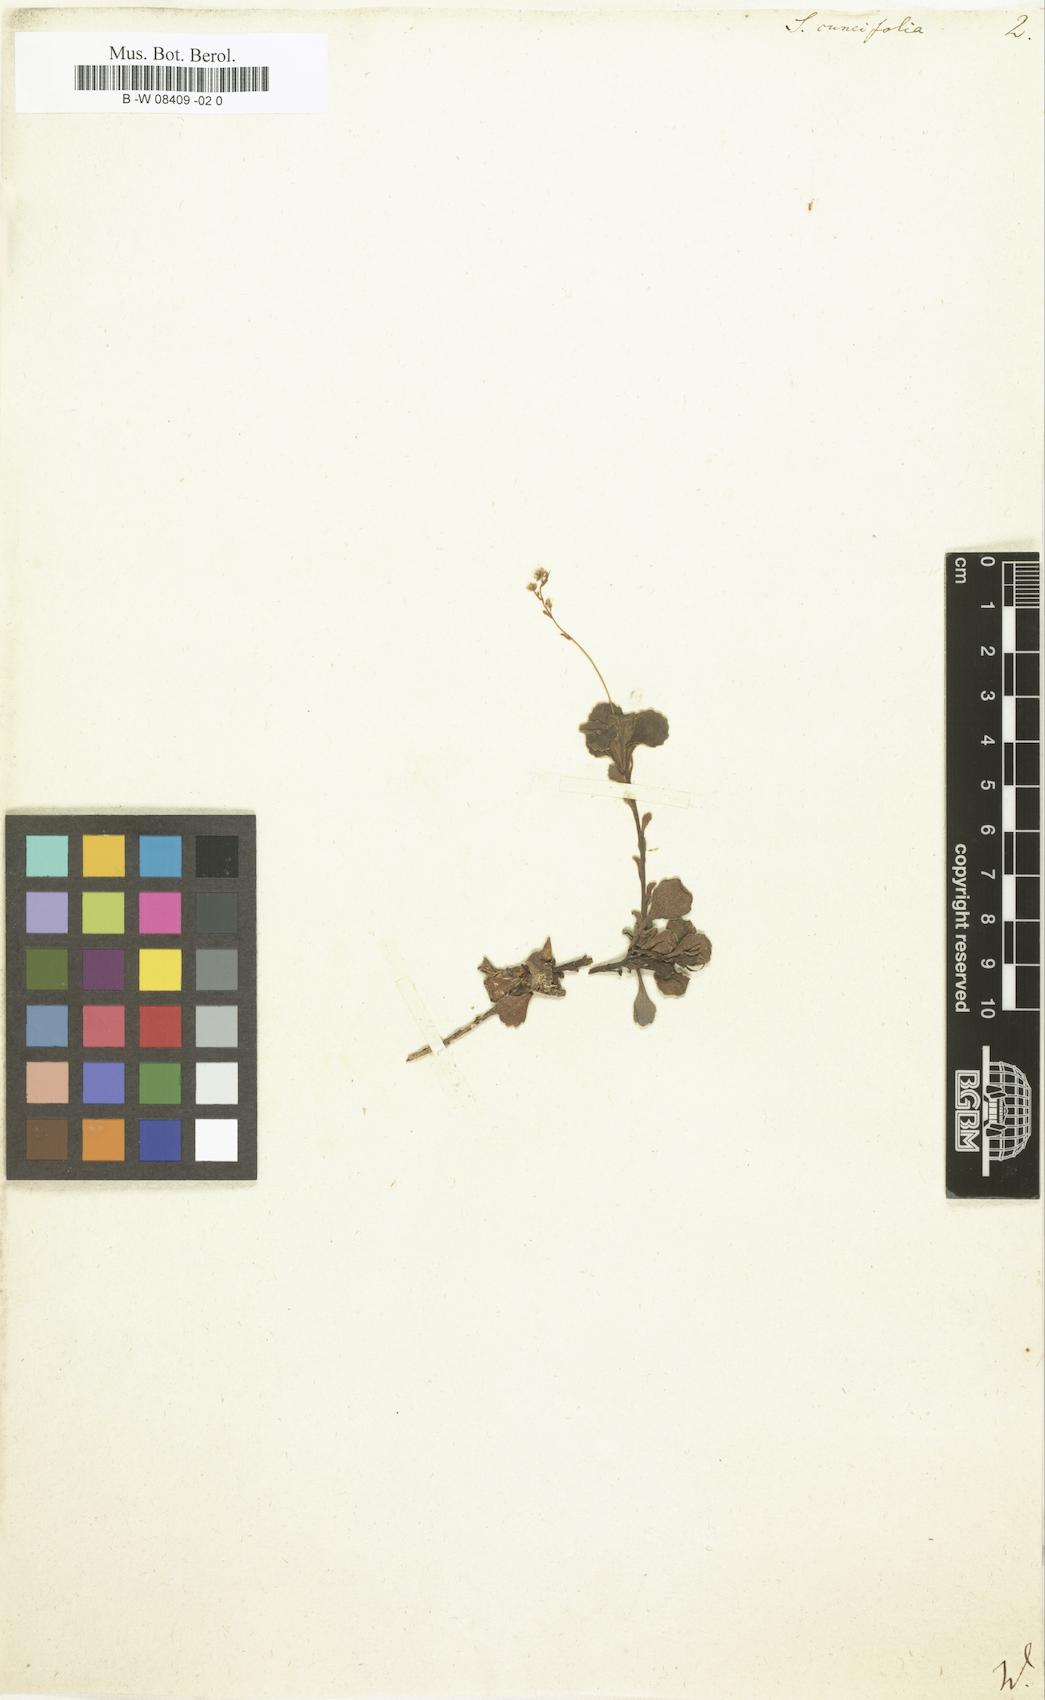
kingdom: Plantae
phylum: Tracheophyta
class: Magnoliopsida
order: Saxifragales
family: Saxifragaceae
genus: Saxifraga
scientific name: Saxifraga cuneifolia
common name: Lesser londonpride
